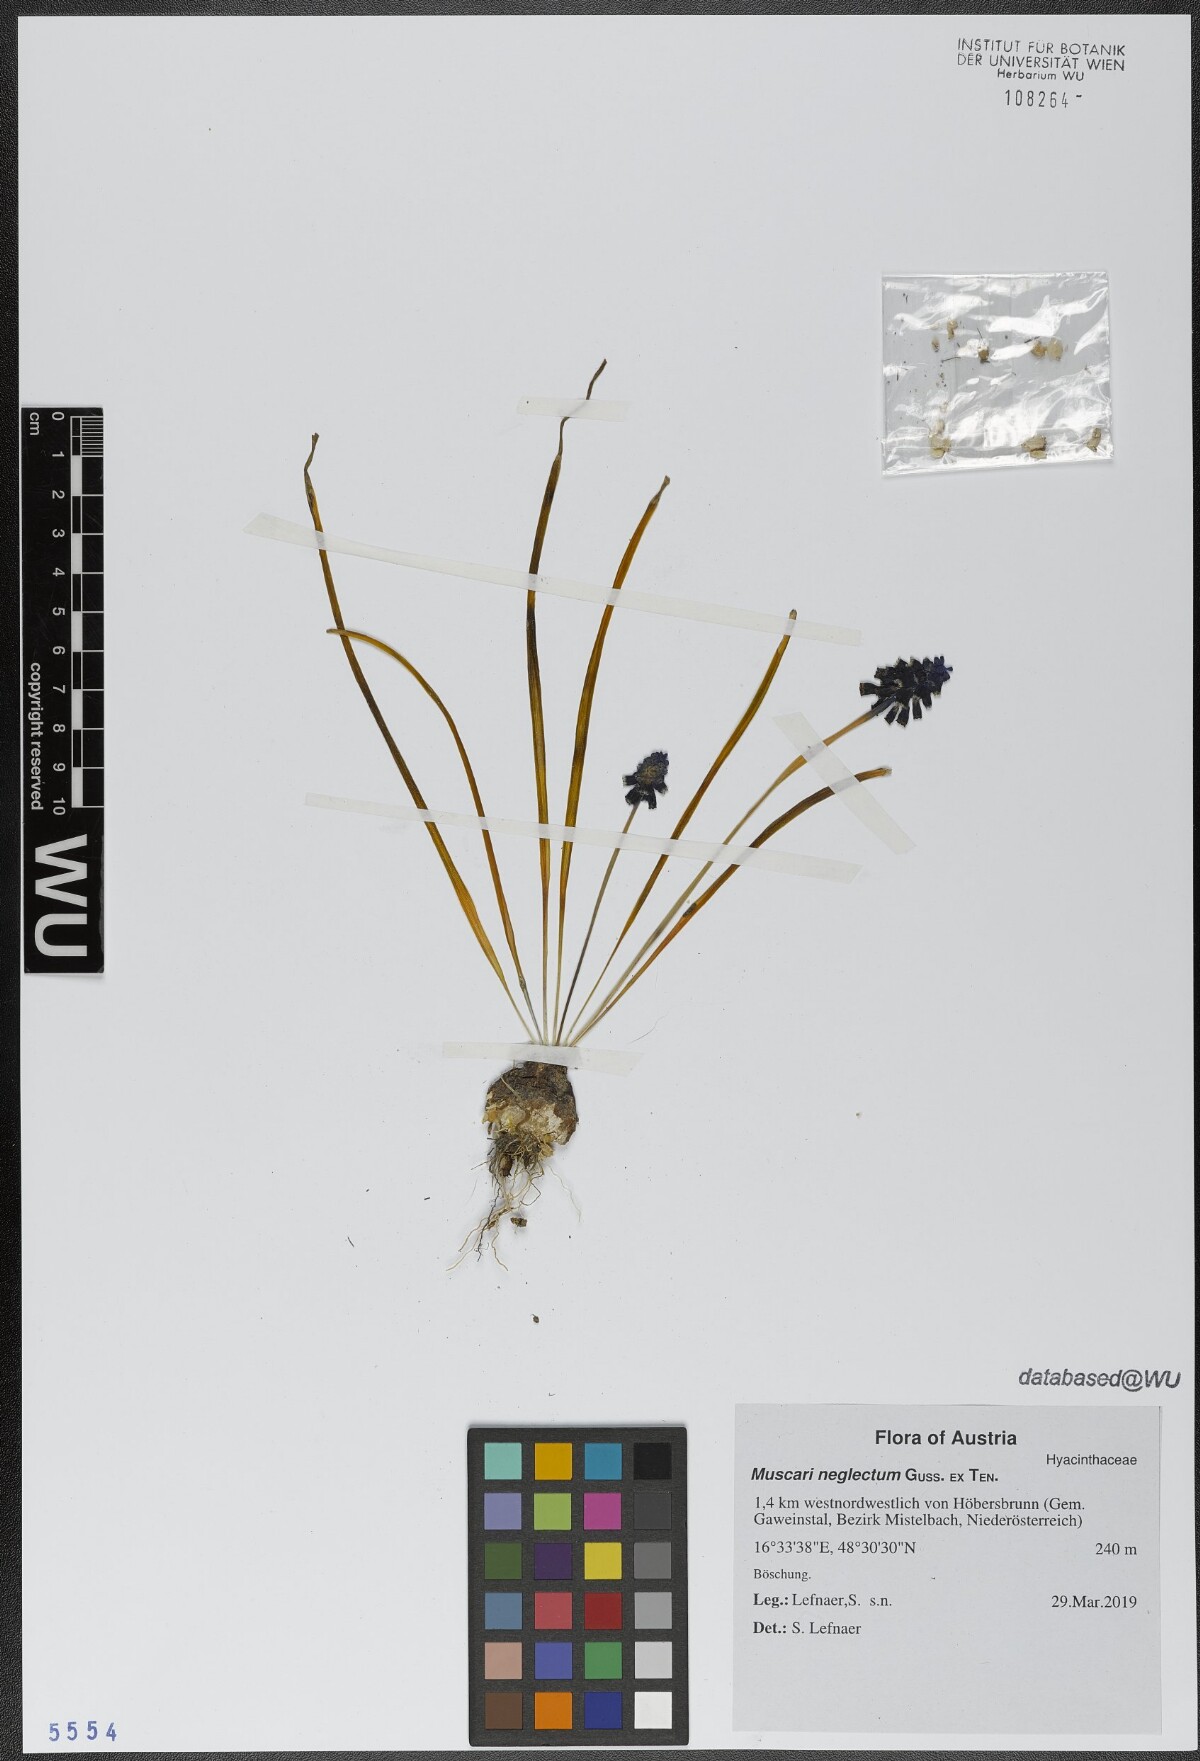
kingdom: Plantae
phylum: Tracheophyta
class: Liliopsida
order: Asparagales
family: Asparagaceae
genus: Muscari
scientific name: Muscari neglectum
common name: Grape-hyacinth
